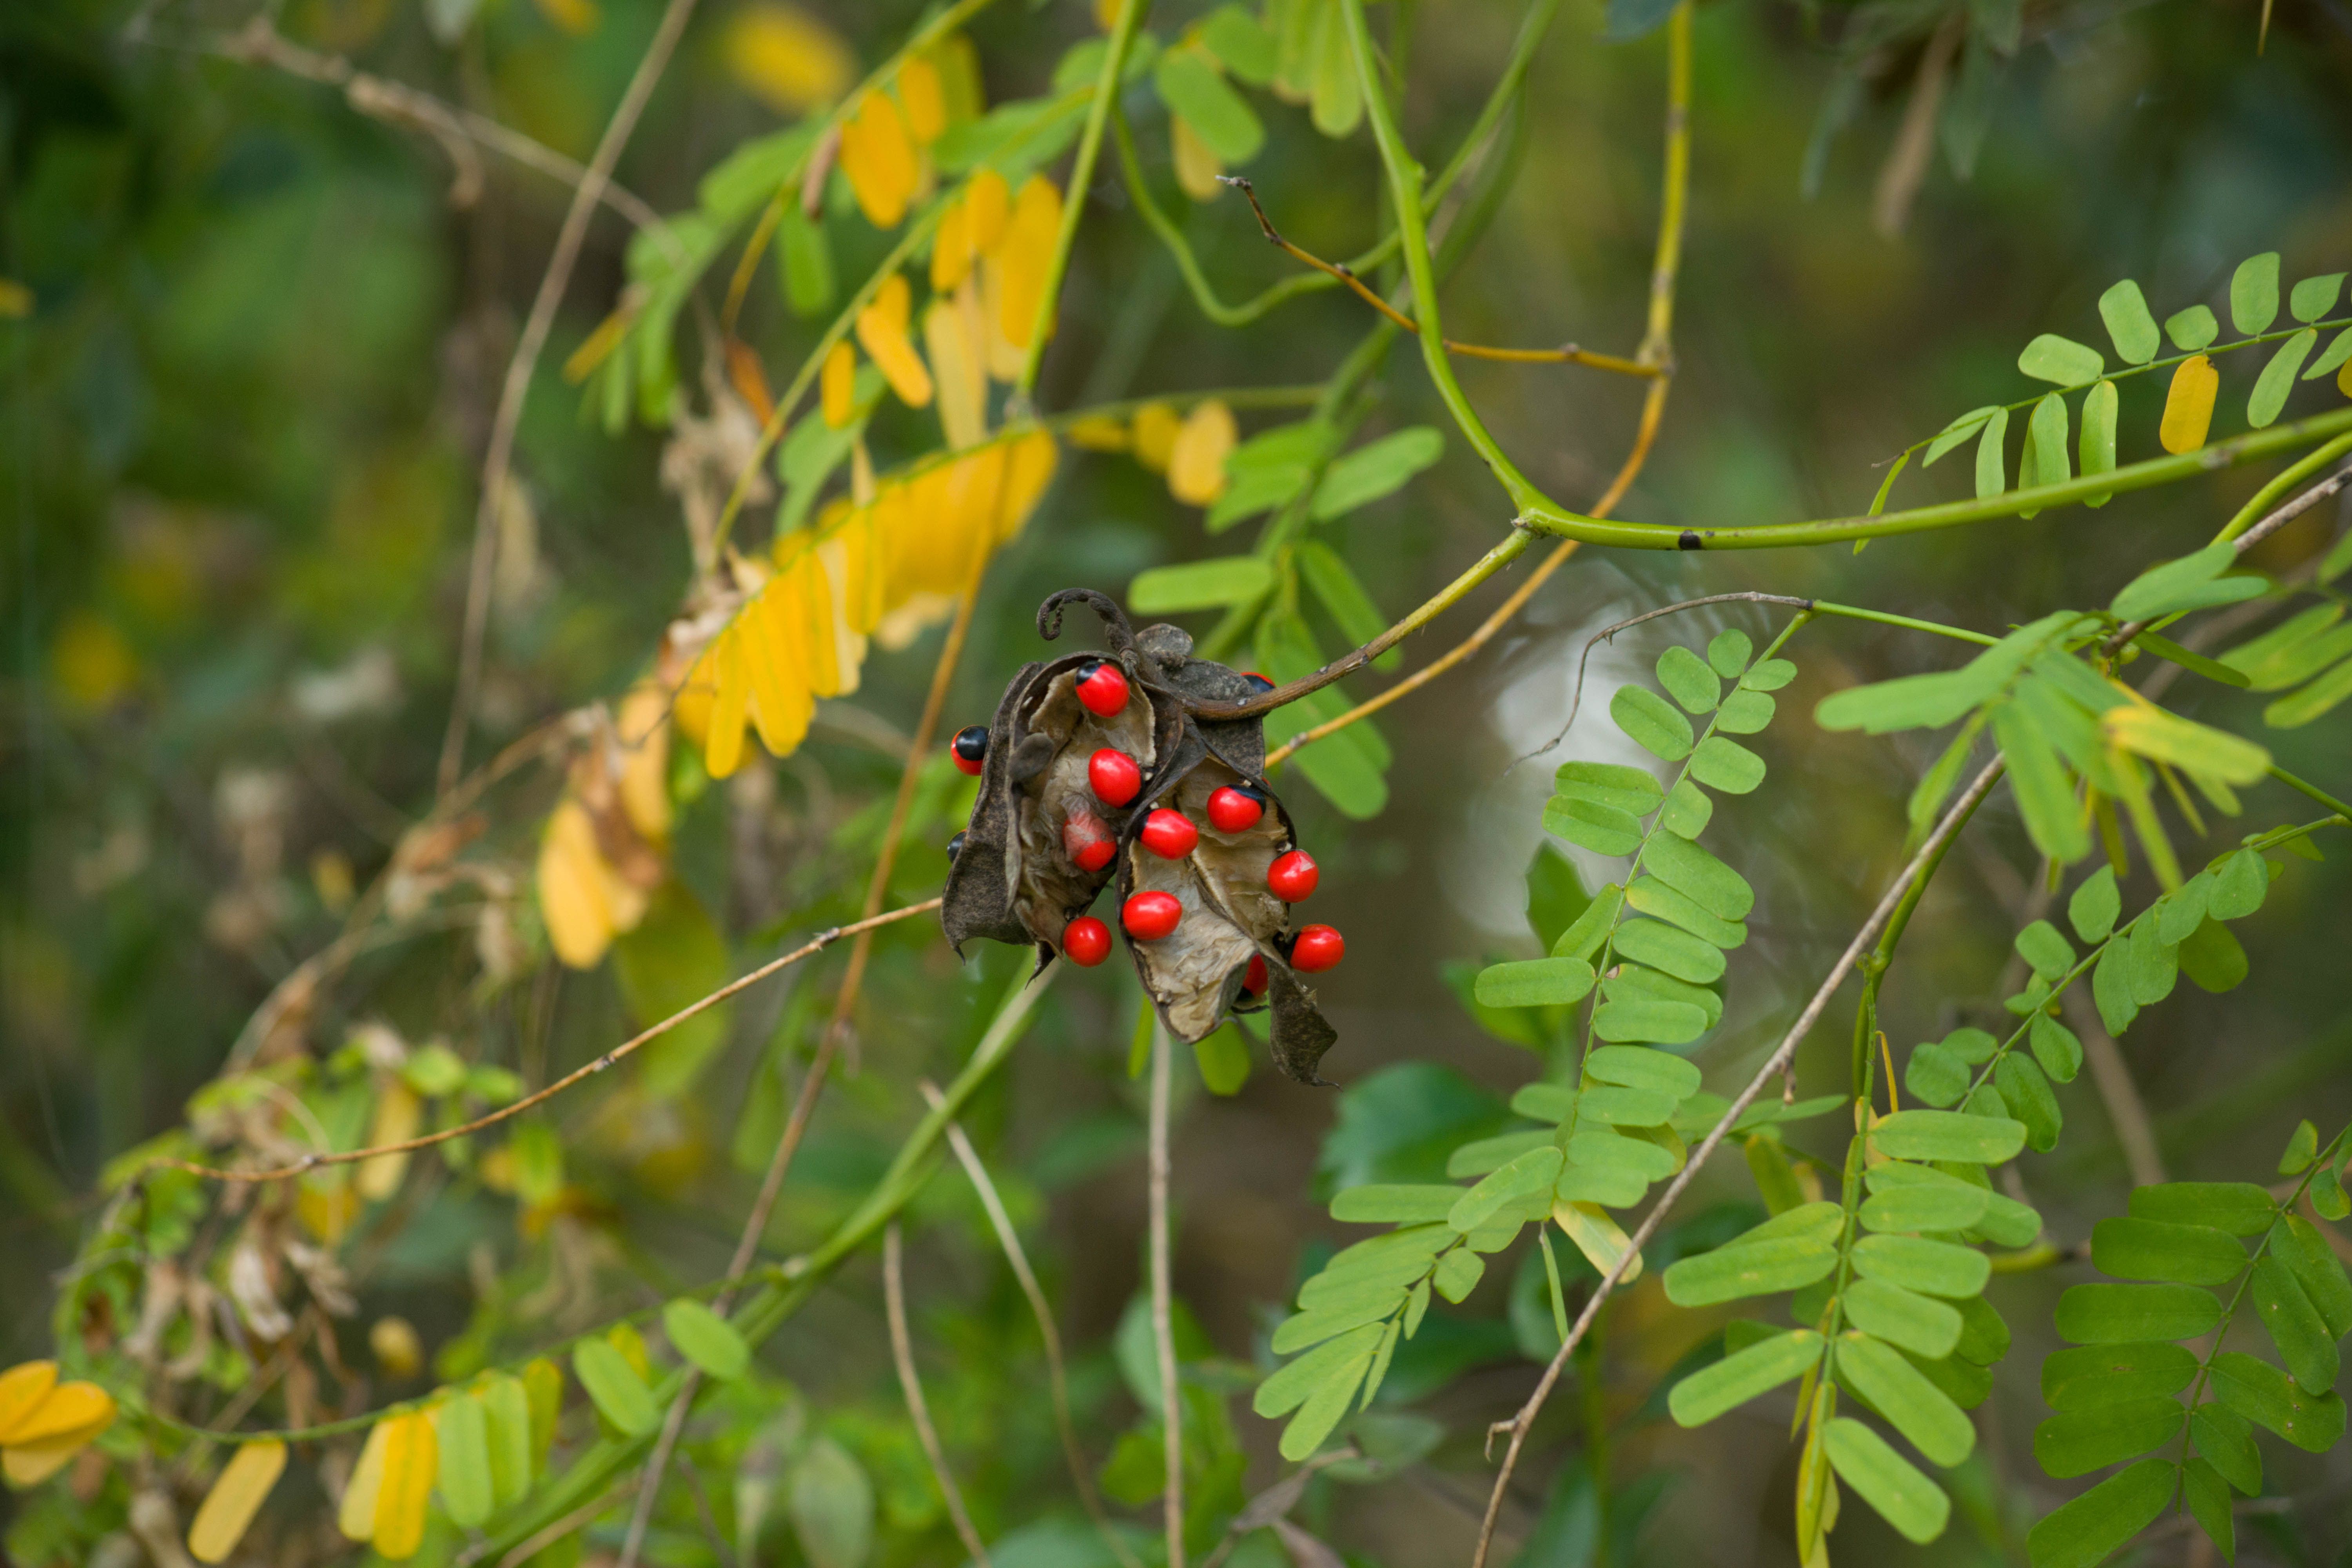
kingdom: Plantae
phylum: Tracheophyta
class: Magnoliopsida
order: Fabales
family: Fabaceae
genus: Abrus
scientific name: Abrus precatorius
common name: Rosarypea
